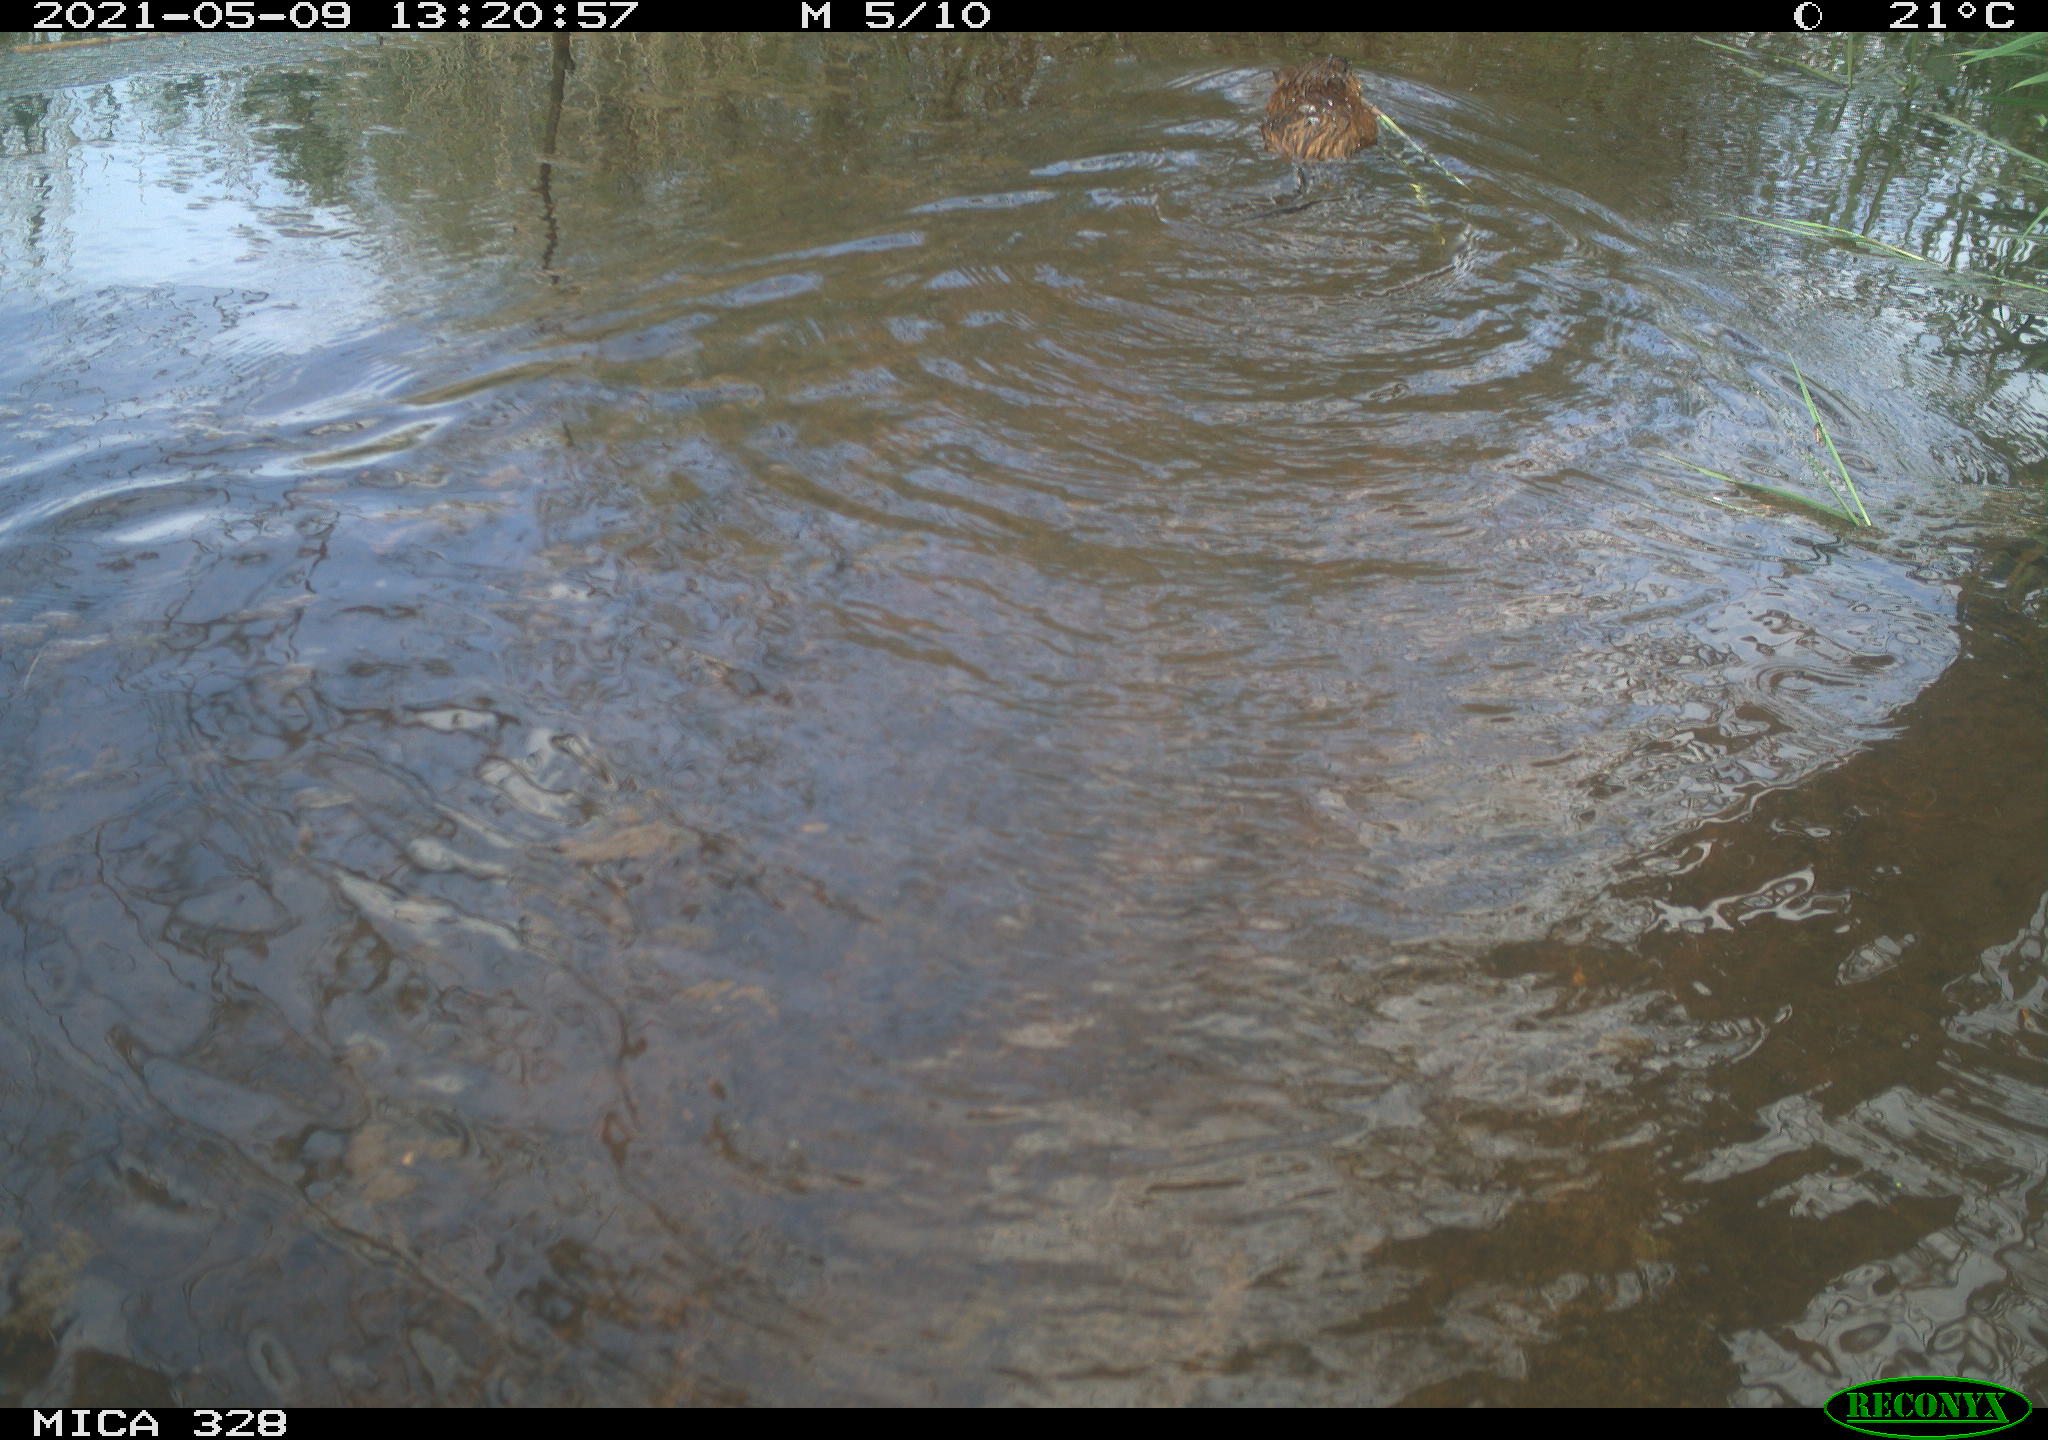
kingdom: Animalia
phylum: Chordata
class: Mammalia
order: Rodentia
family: Cricetidae
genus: Ondatra
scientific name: Ondatra zibethicus
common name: Muskrat
